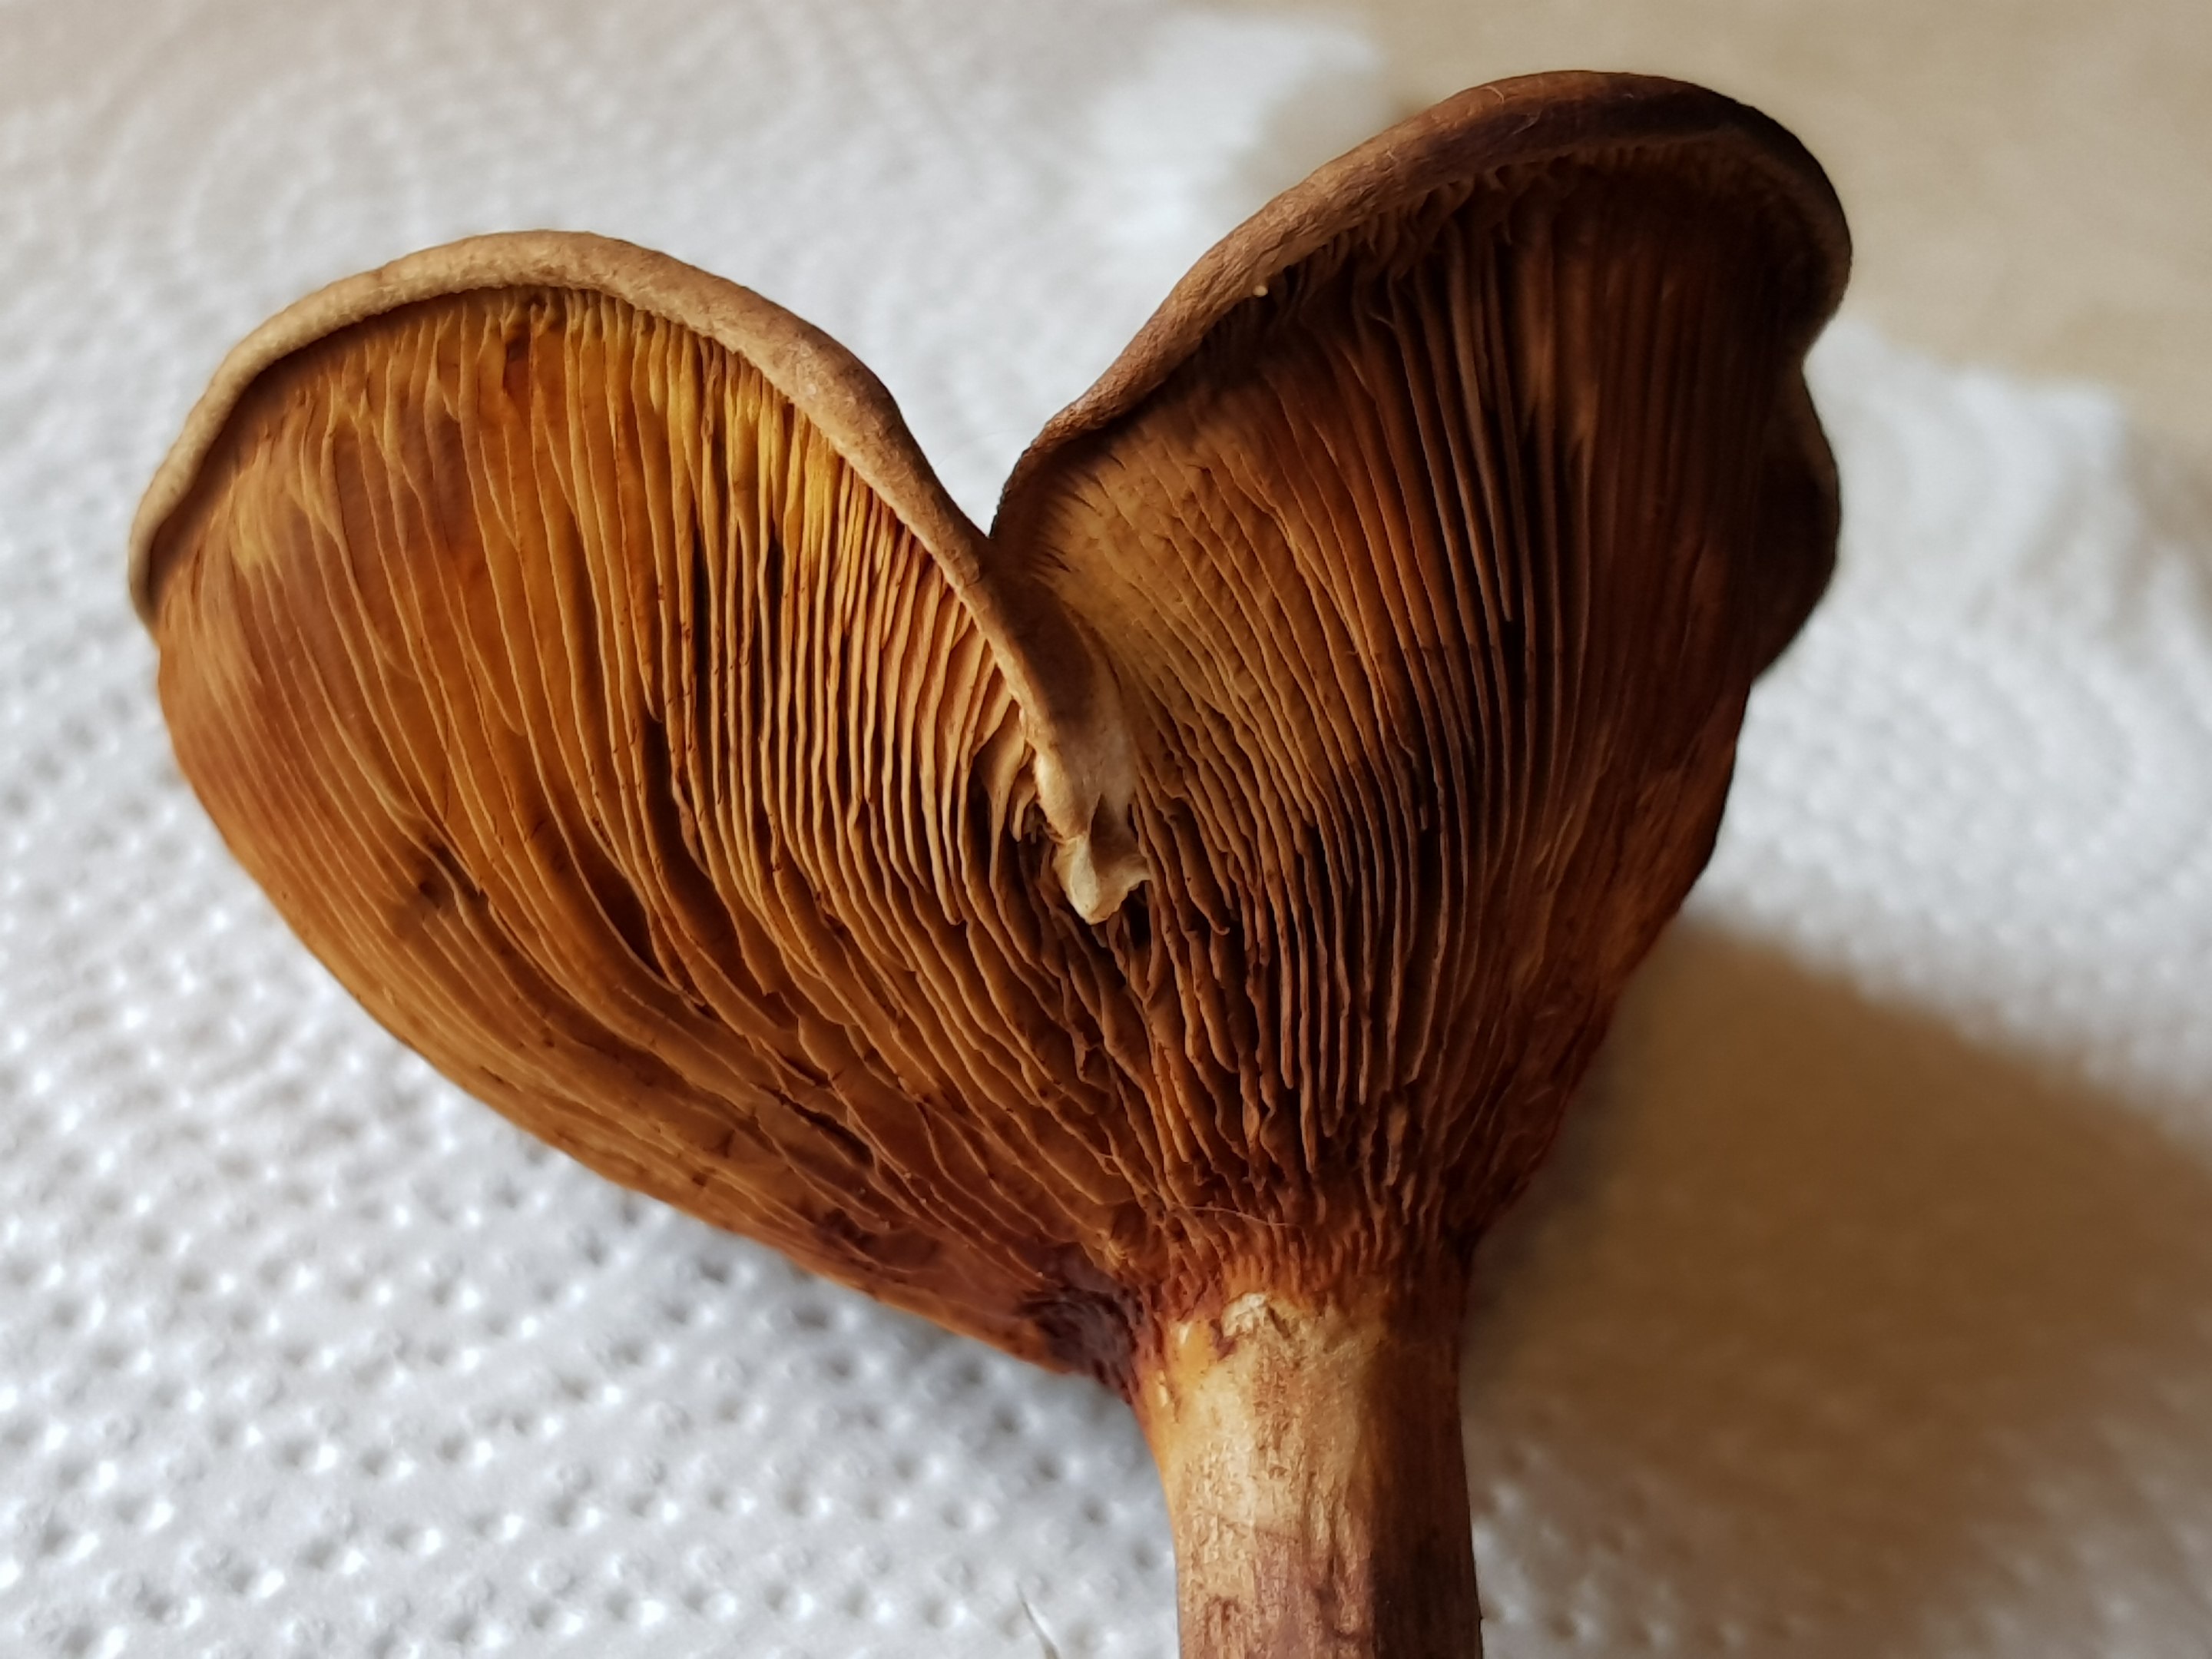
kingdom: Fungi
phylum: Basidiomycota
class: Agaricomycetes
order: Boletales
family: Paxillaceae
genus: Paxillus
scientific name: Paxillus
